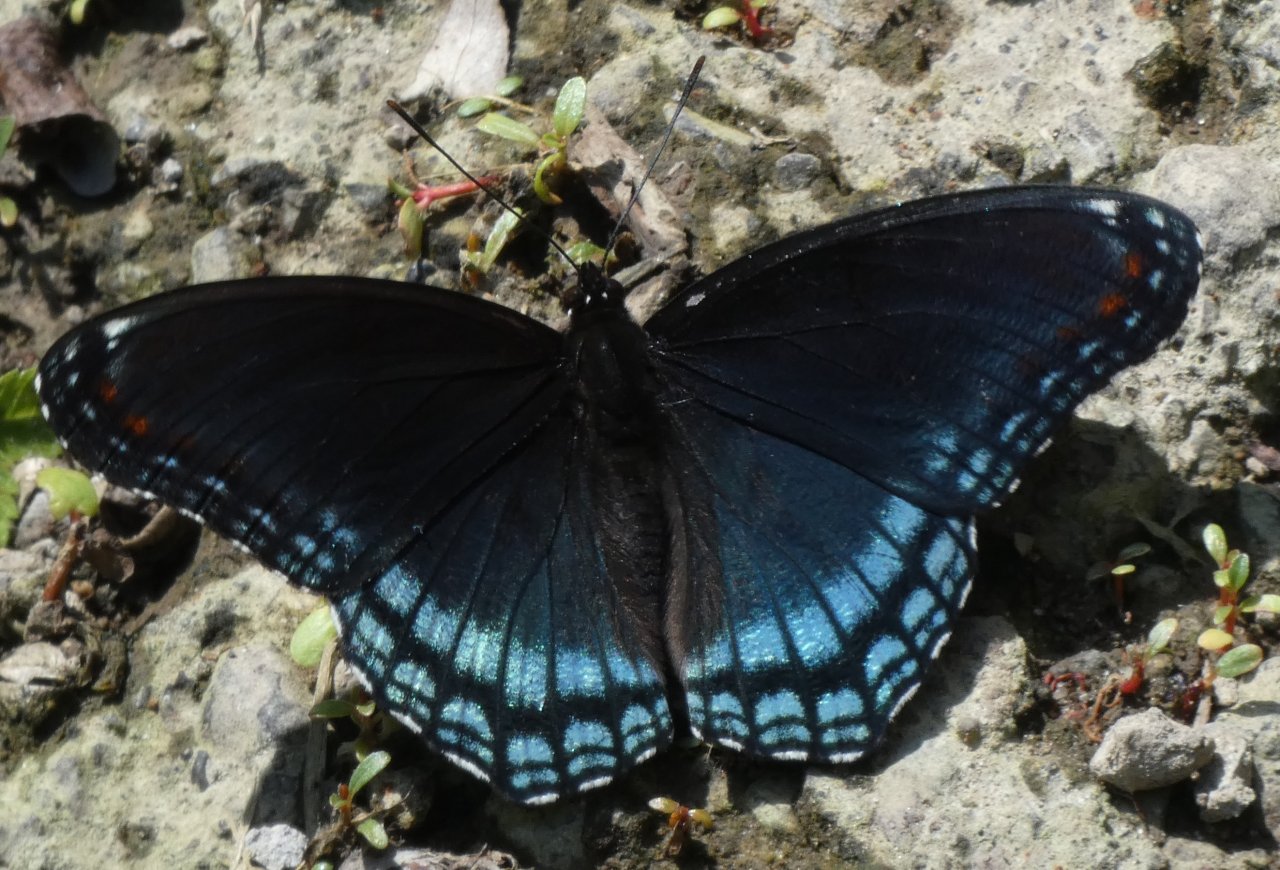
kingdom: Animalia
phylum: Arthropoda
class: Insecta
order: Lepidoptera
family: Nymphalidae
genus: Limenitis
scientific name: Limenitis astyanax
